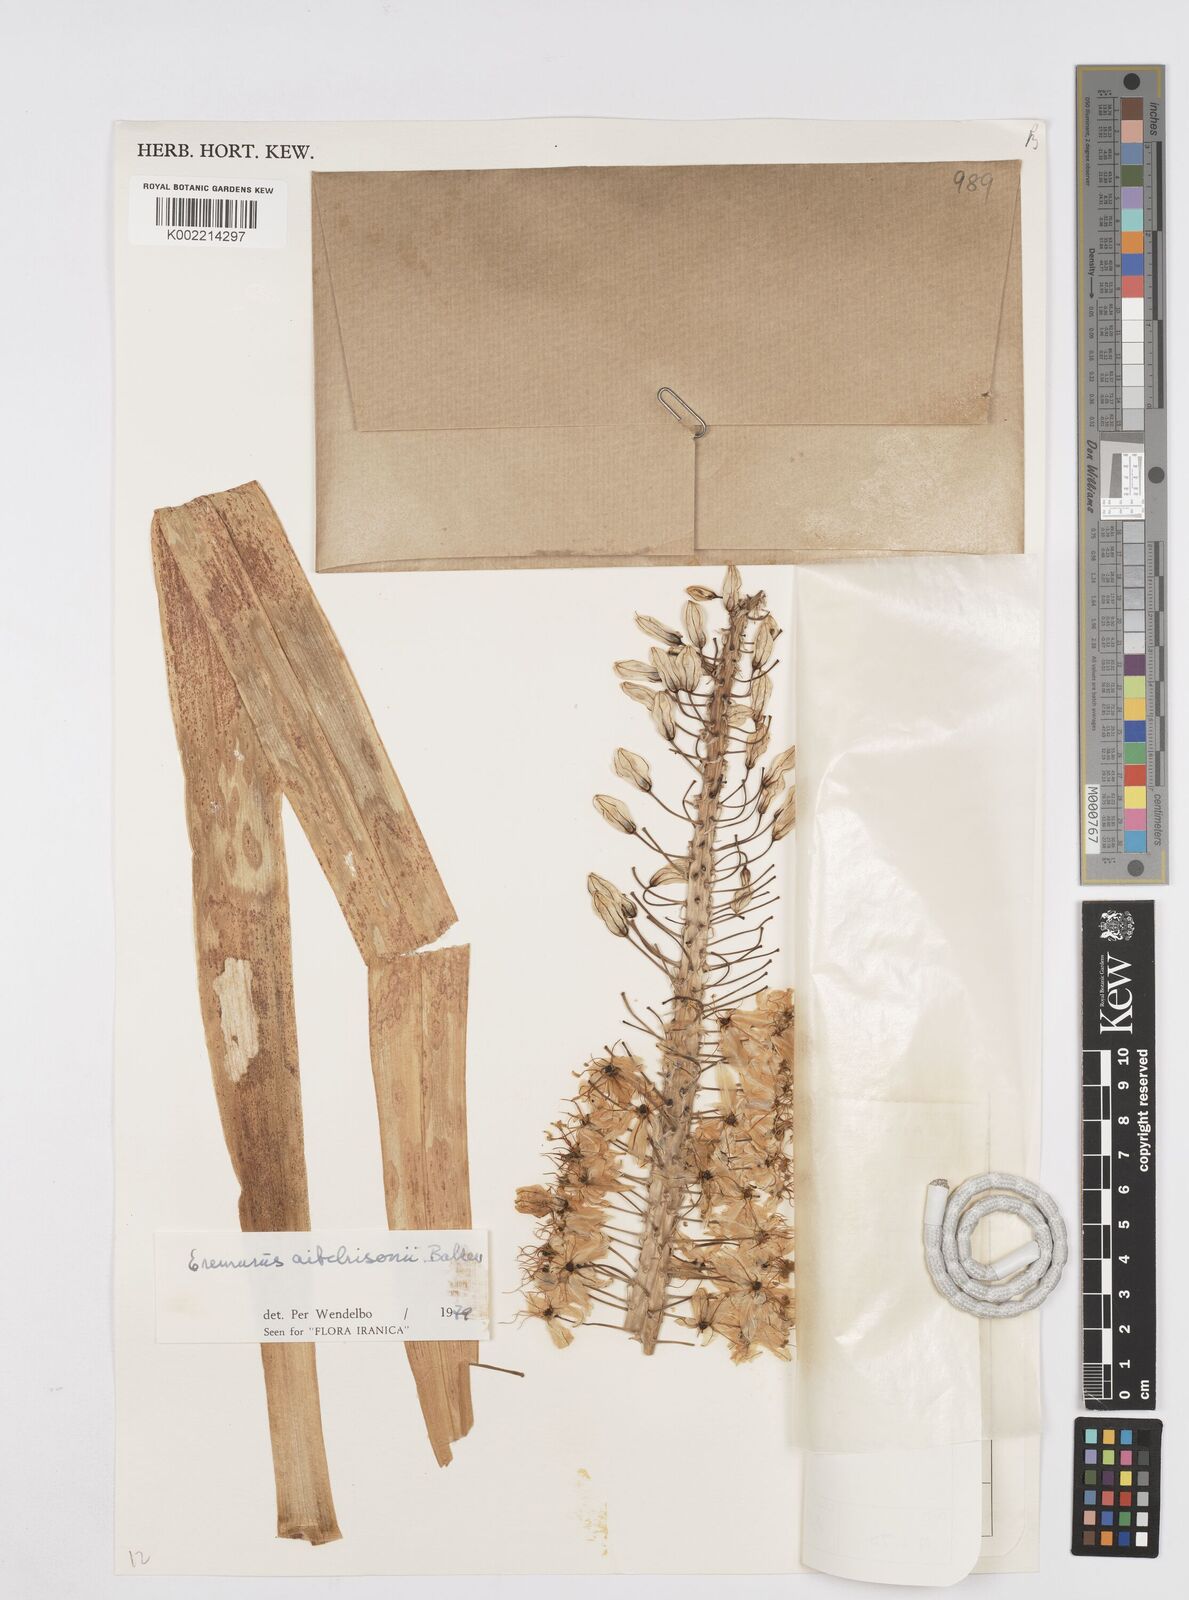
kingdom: Plantae
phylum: Tracheophyta
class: Liliopsida
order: Asparagales
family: Asphodelaceae
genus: Eremurus
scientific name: Eremurus aitchisonii
